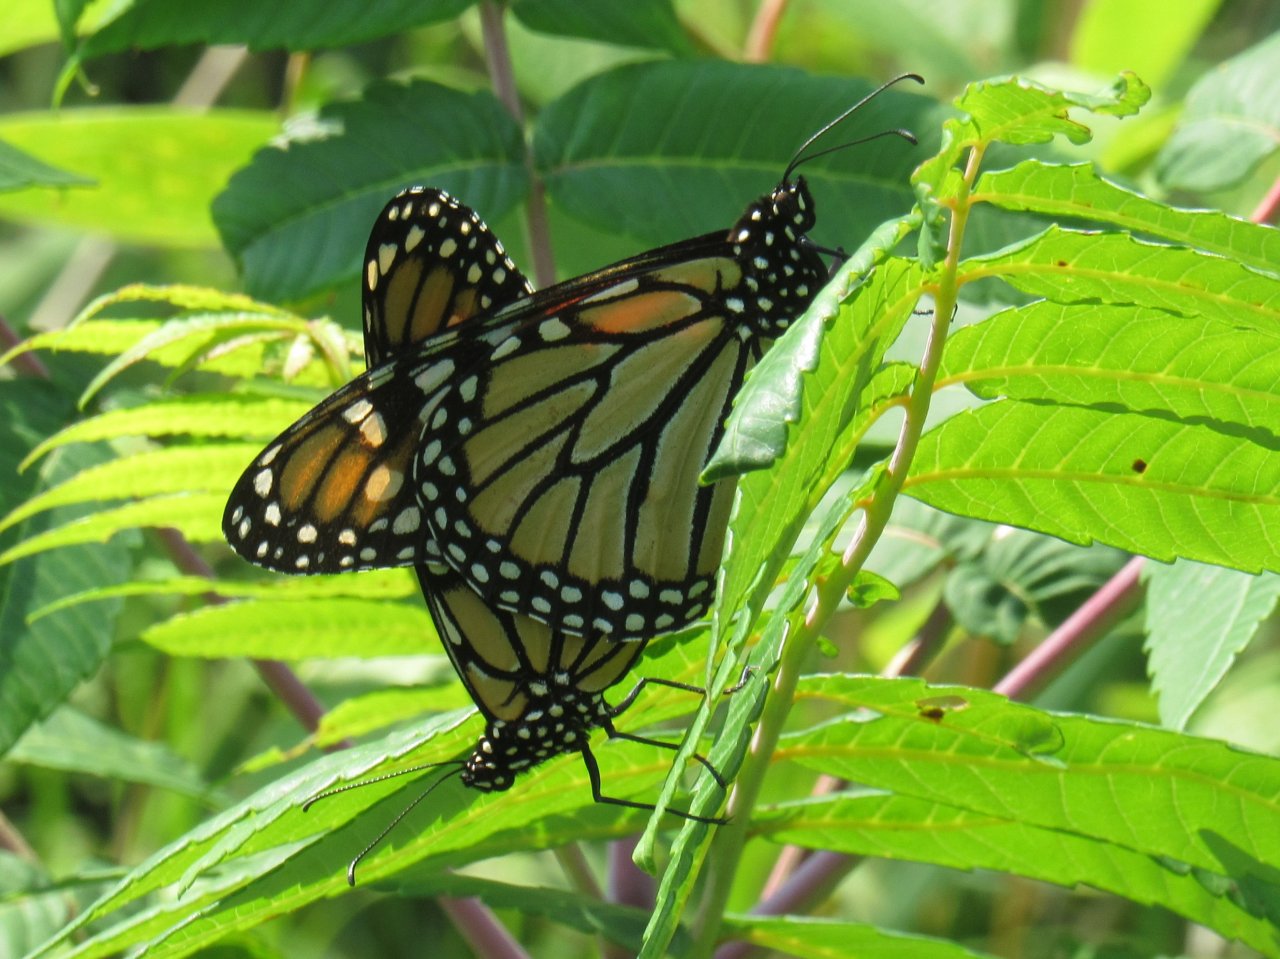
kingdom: Animalia
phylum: Arthropoda
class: Insecta
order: Lepidoptera
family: Nymphalidae
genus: Danaus
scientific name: Danaus plexippus
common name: Monarch
